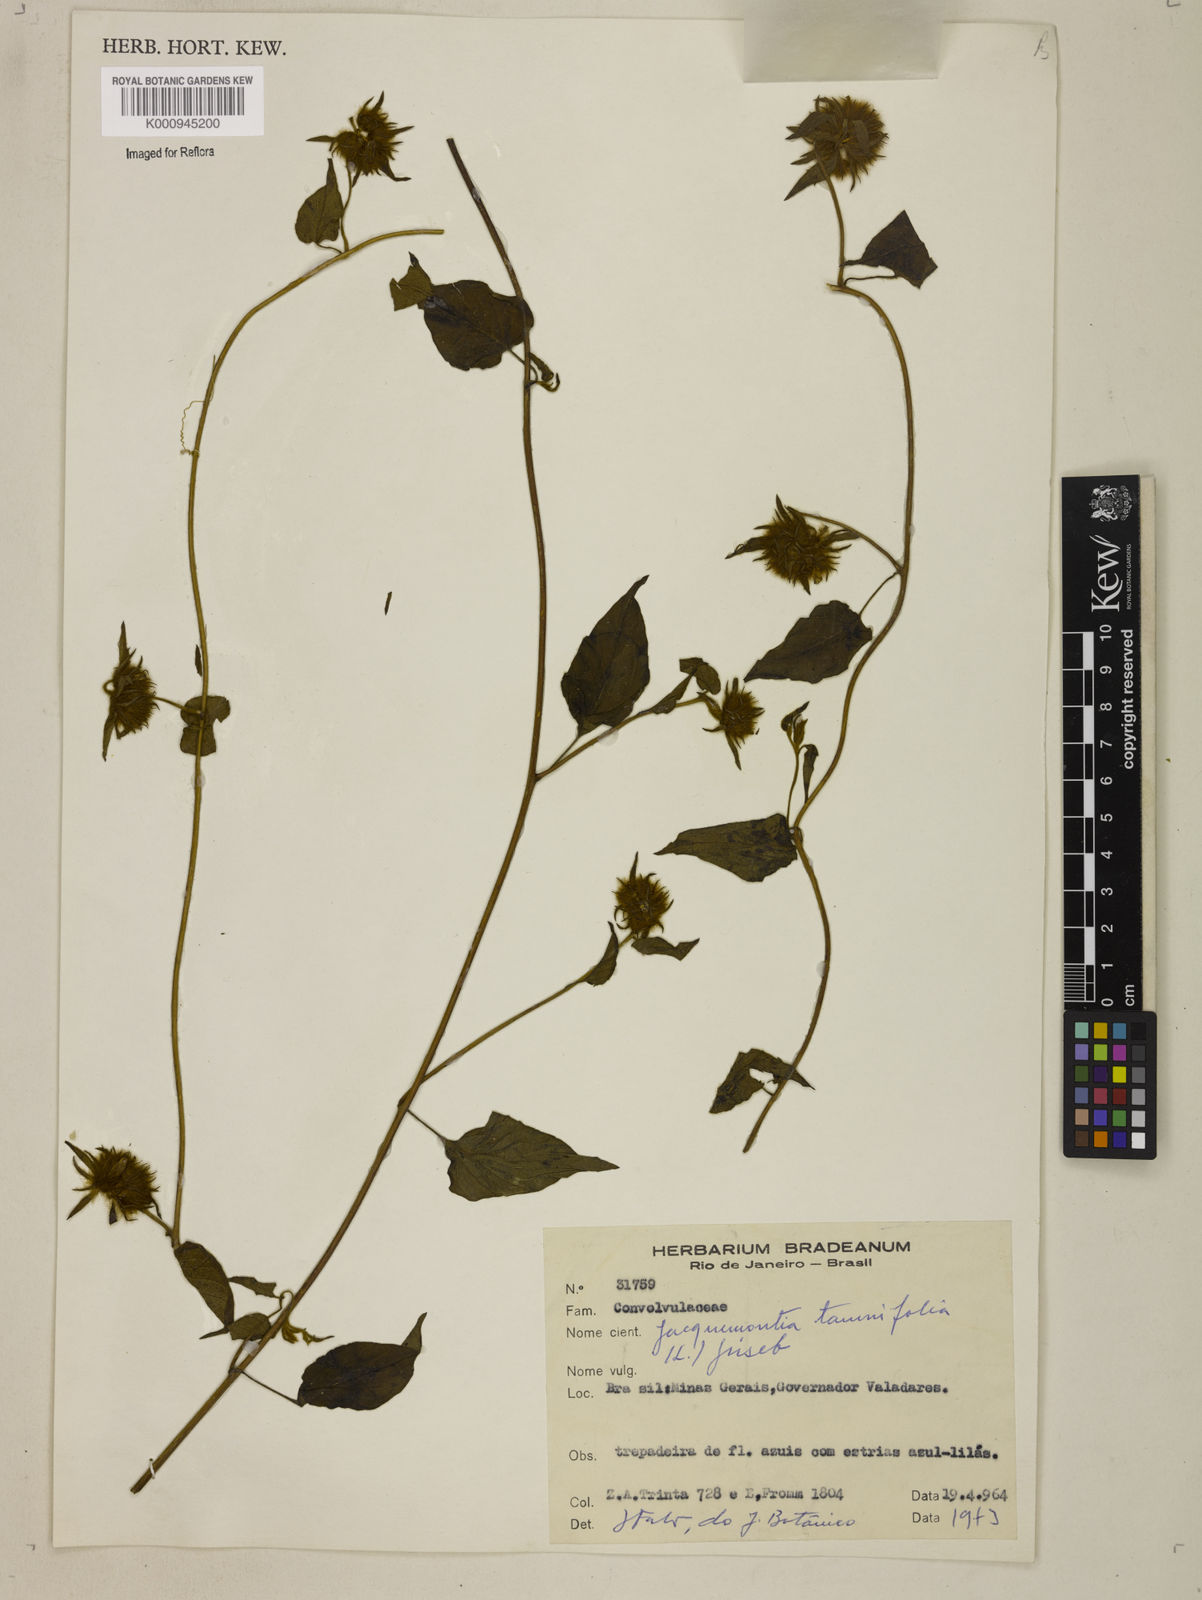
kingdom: Plantae
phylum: Tracheophyta
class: Magnoliopsida
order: Solanales
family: Convolvulaceae
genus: Jacquemontia
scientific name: Jacquemontia tamnifolia
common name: Hairy clustervine
